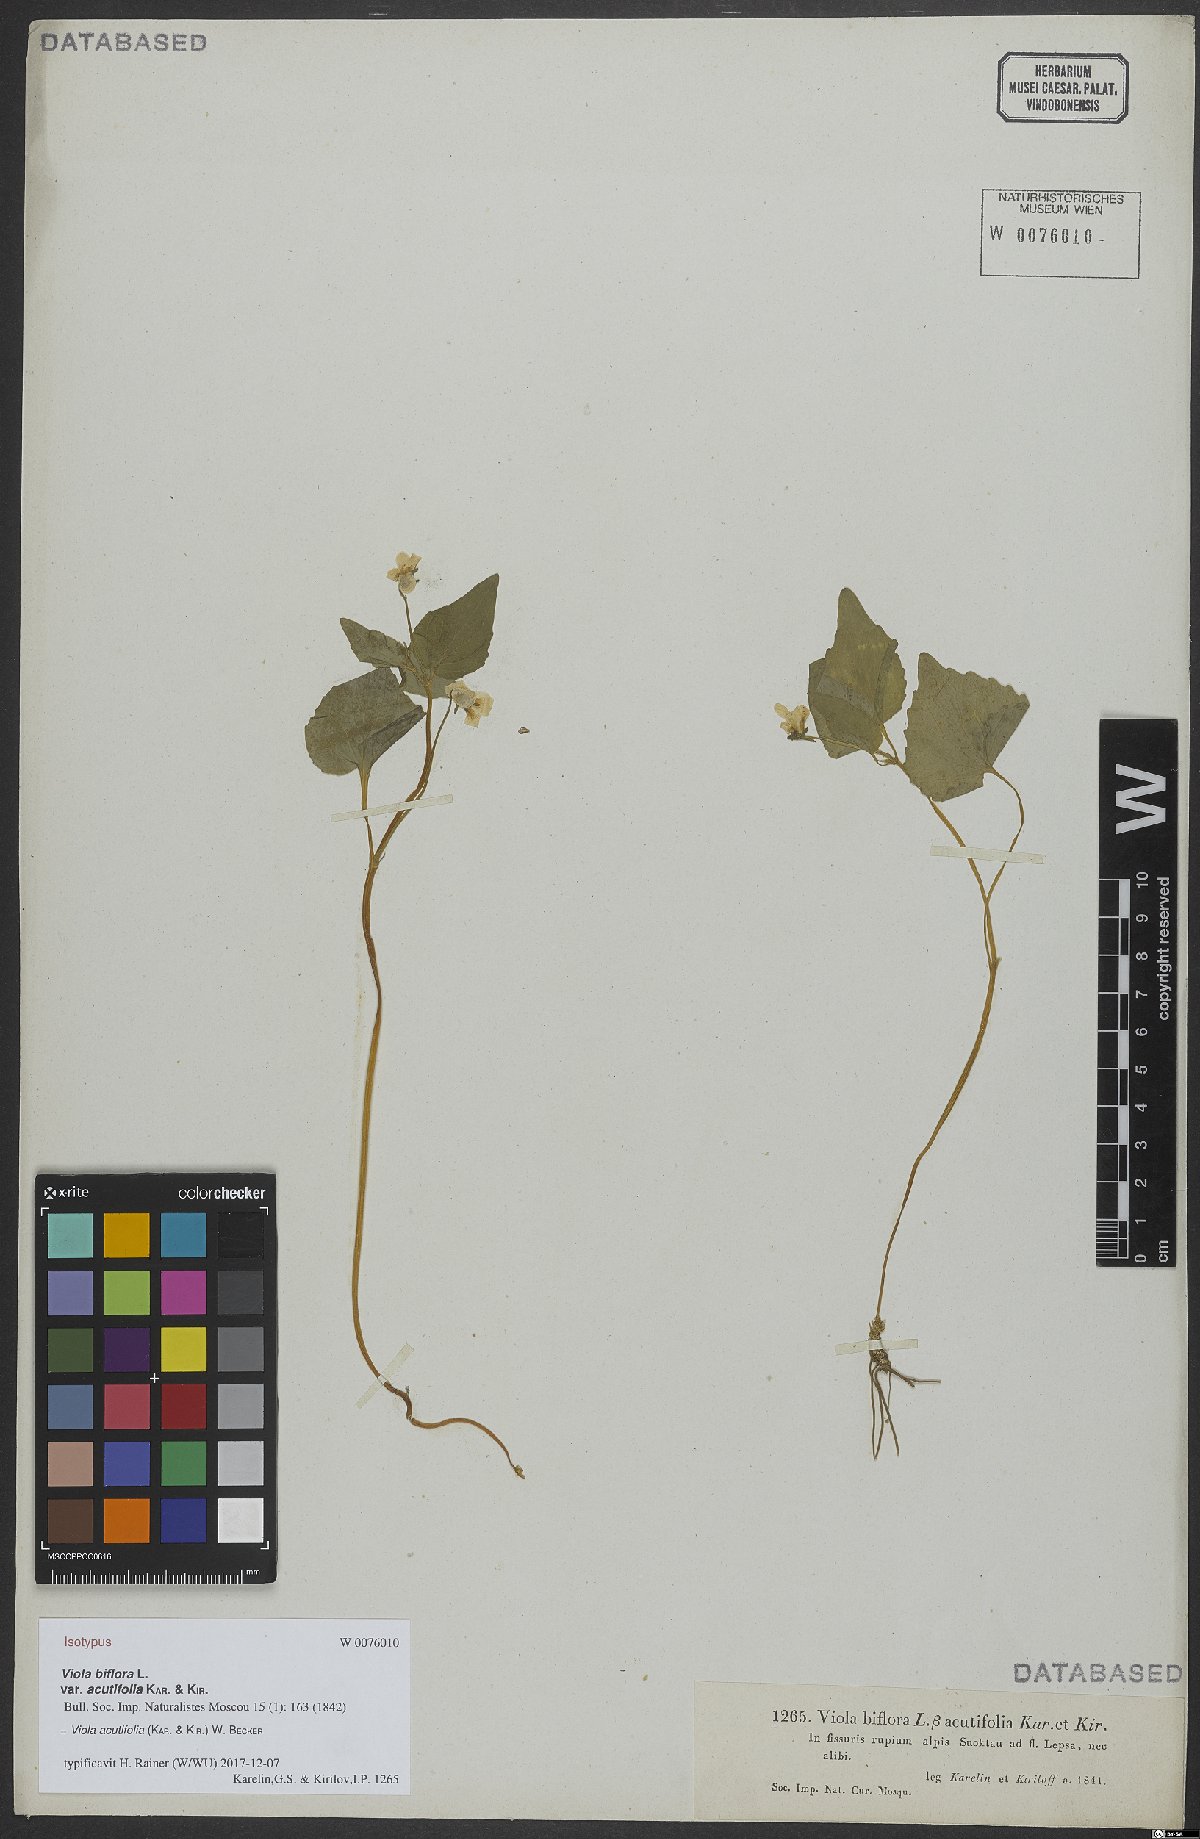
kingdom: Plantae
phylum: Tracheophyta
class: Magnoliopsida
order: Malpighiales
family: Violaceae
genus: Viola
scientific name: Viola acutifolia
